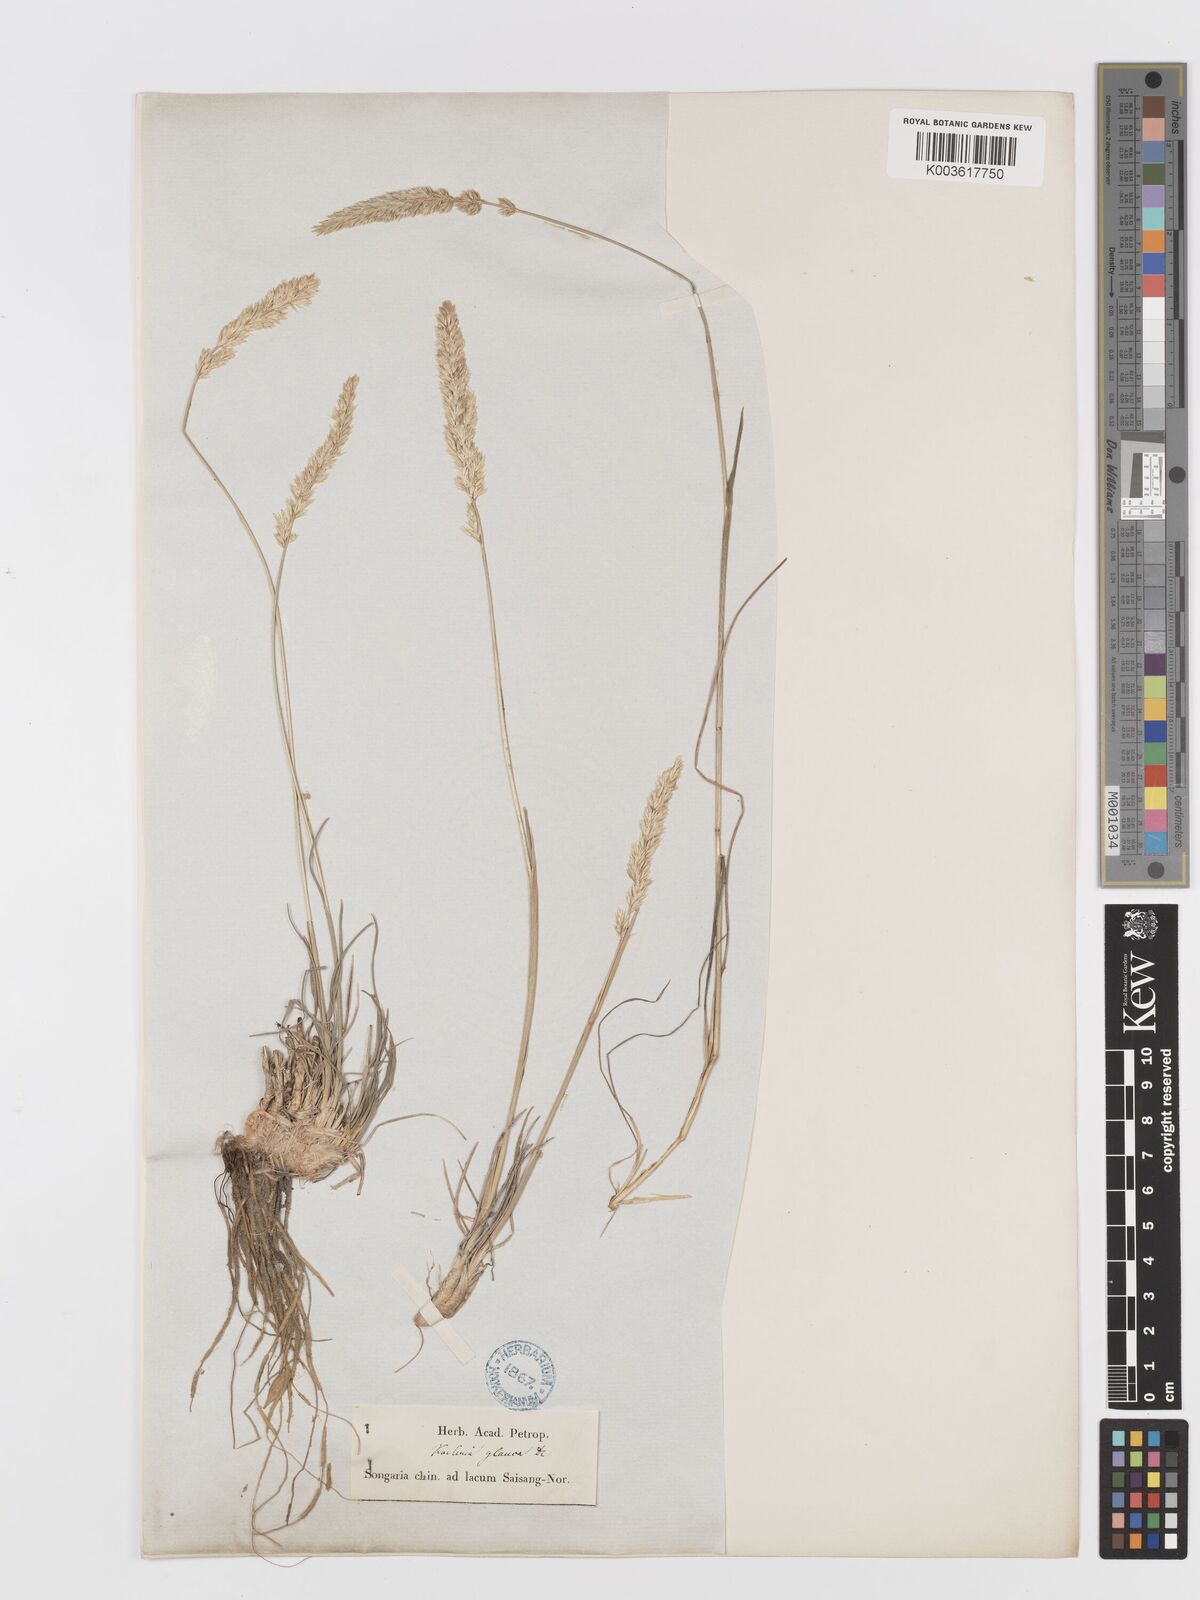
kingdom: Plantae
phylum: Tracheophyta
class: Liliopsida
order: Poales
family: Poaceae
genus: Koeleria
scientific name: Koeleria glauca
